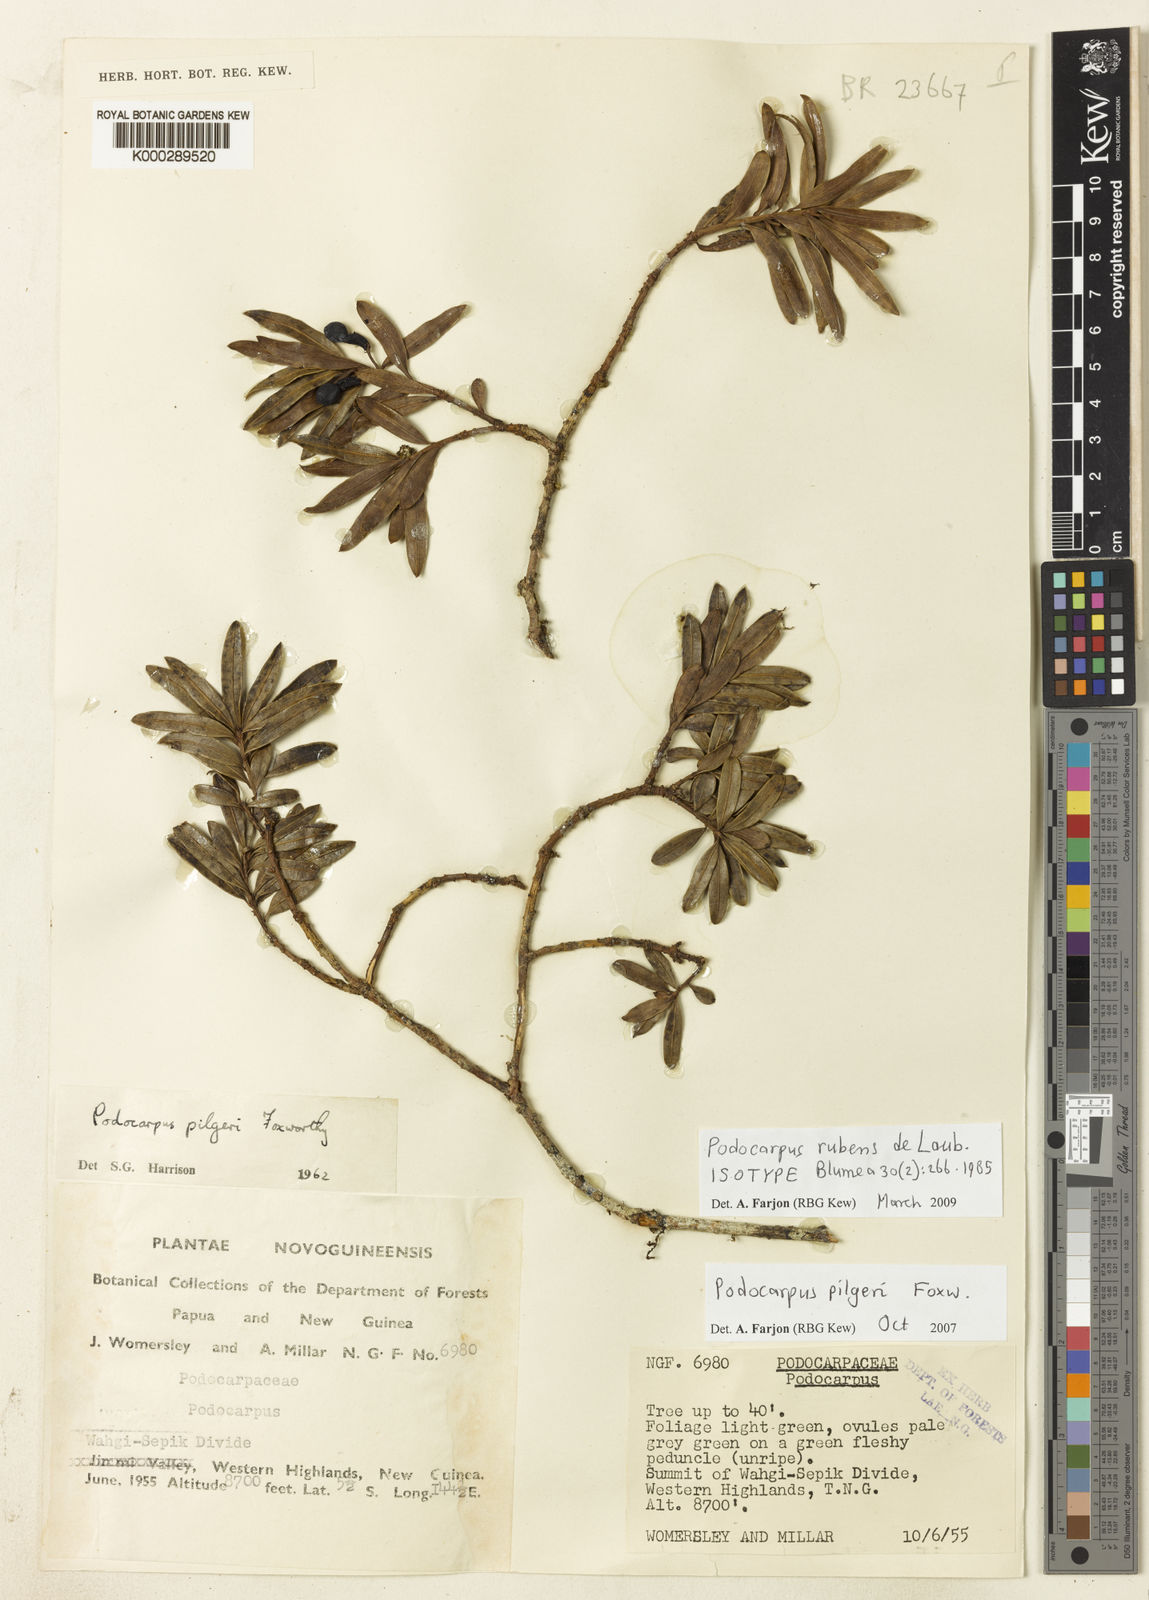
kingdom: Plantae
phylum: Tracheophyta
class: Pinopsida
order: Pinales
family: Podocarpaceae
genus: Podocarpus
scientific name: Podocarpus rubens
